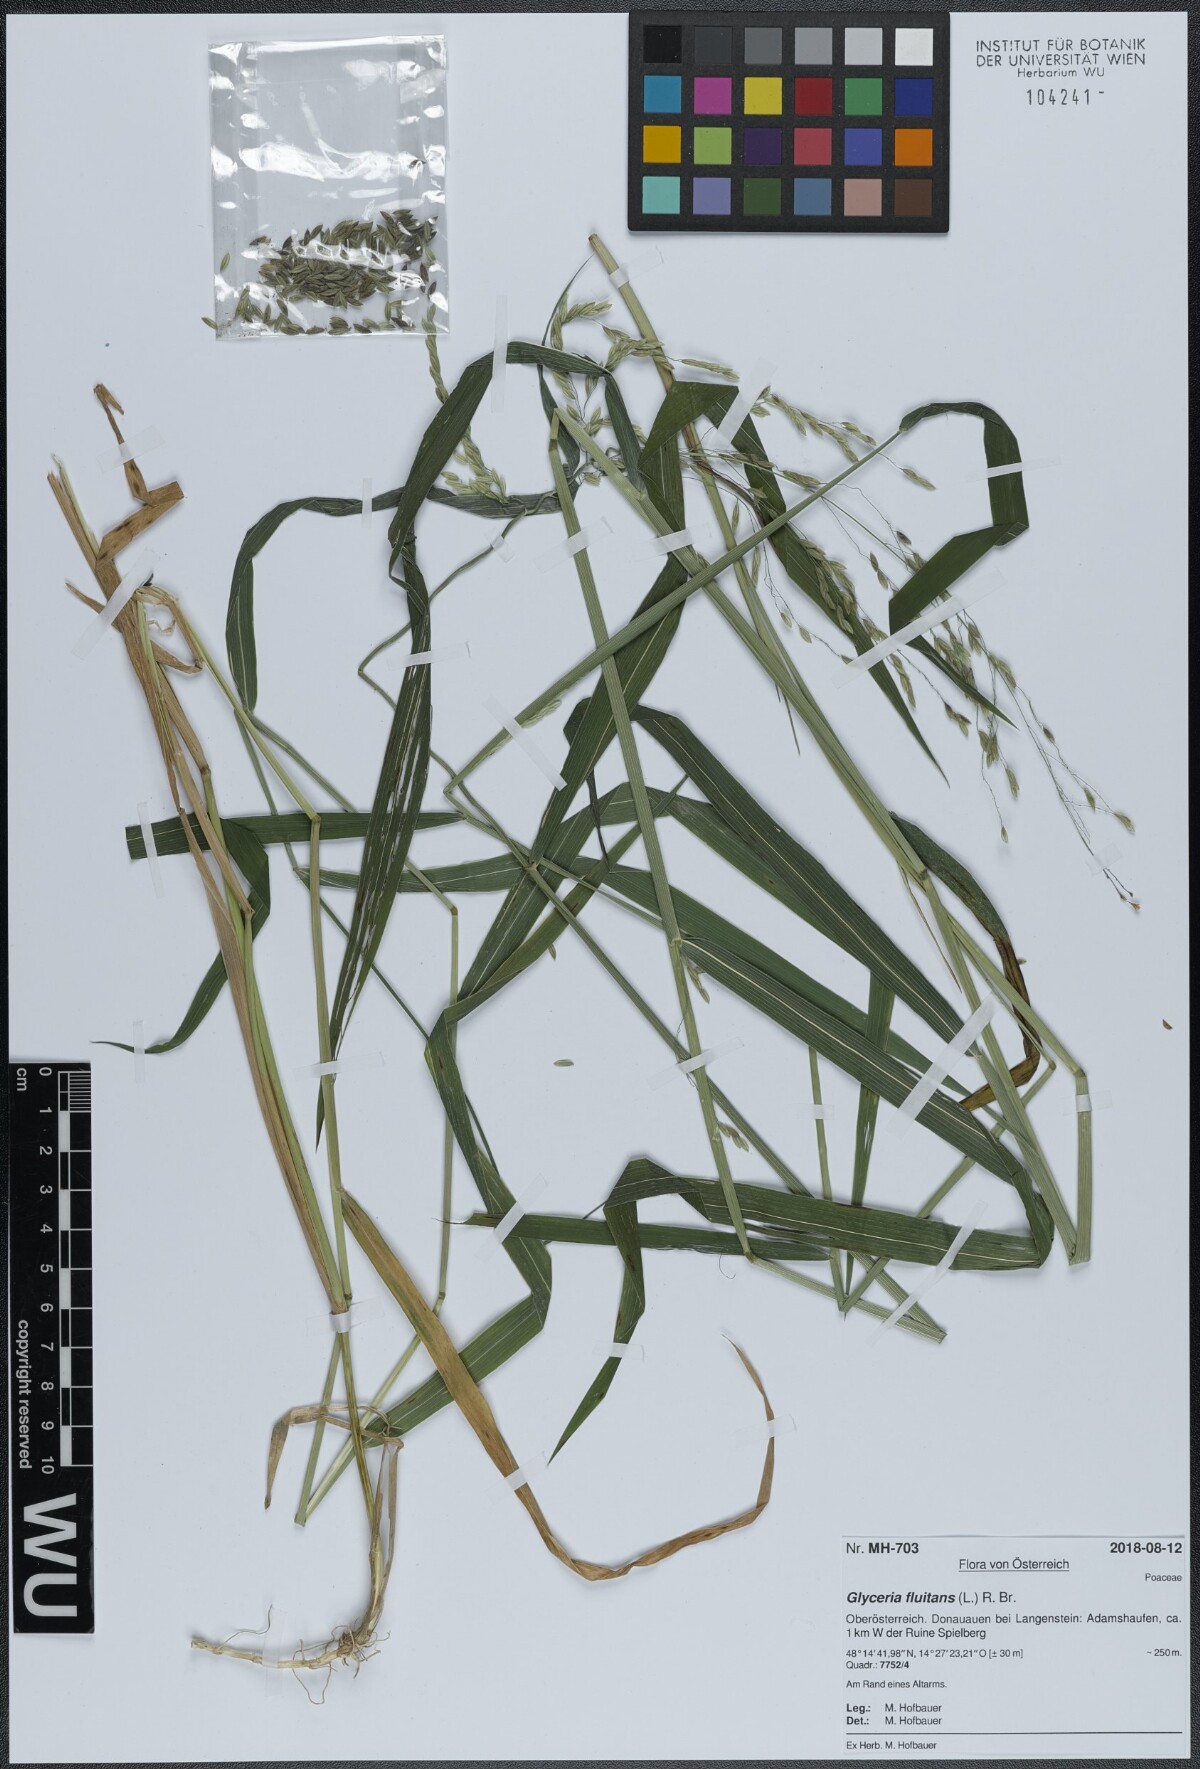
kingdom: Plantae
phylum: Tracheophyta
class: Liliopsida
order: Poales
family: Poaceae
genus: Glyceria
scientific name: Glyceria fluitans
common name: Floating sweet-grass
